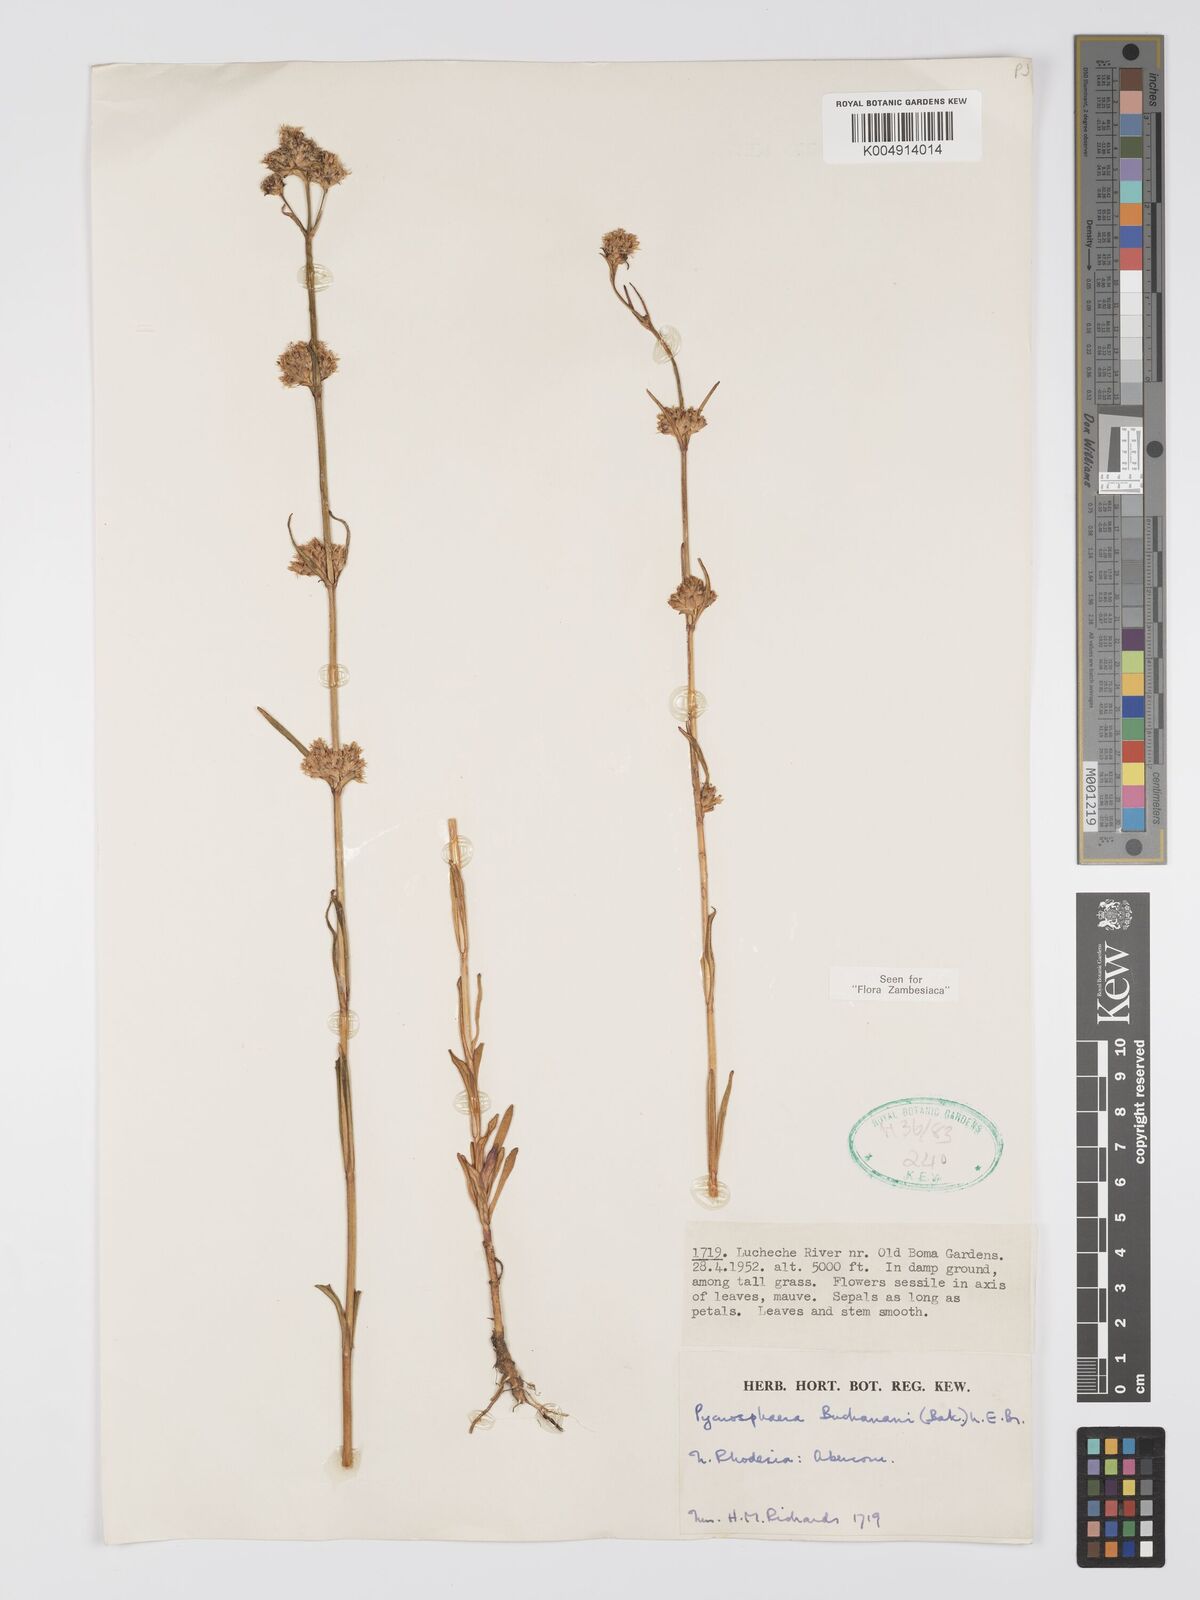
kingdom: Plantae
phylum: Tracheophyta
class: Magnoliopsida
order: Gentianales
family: Gentianaceae
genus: Pycnosphaera
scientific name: Pycnosphaera buchananii
